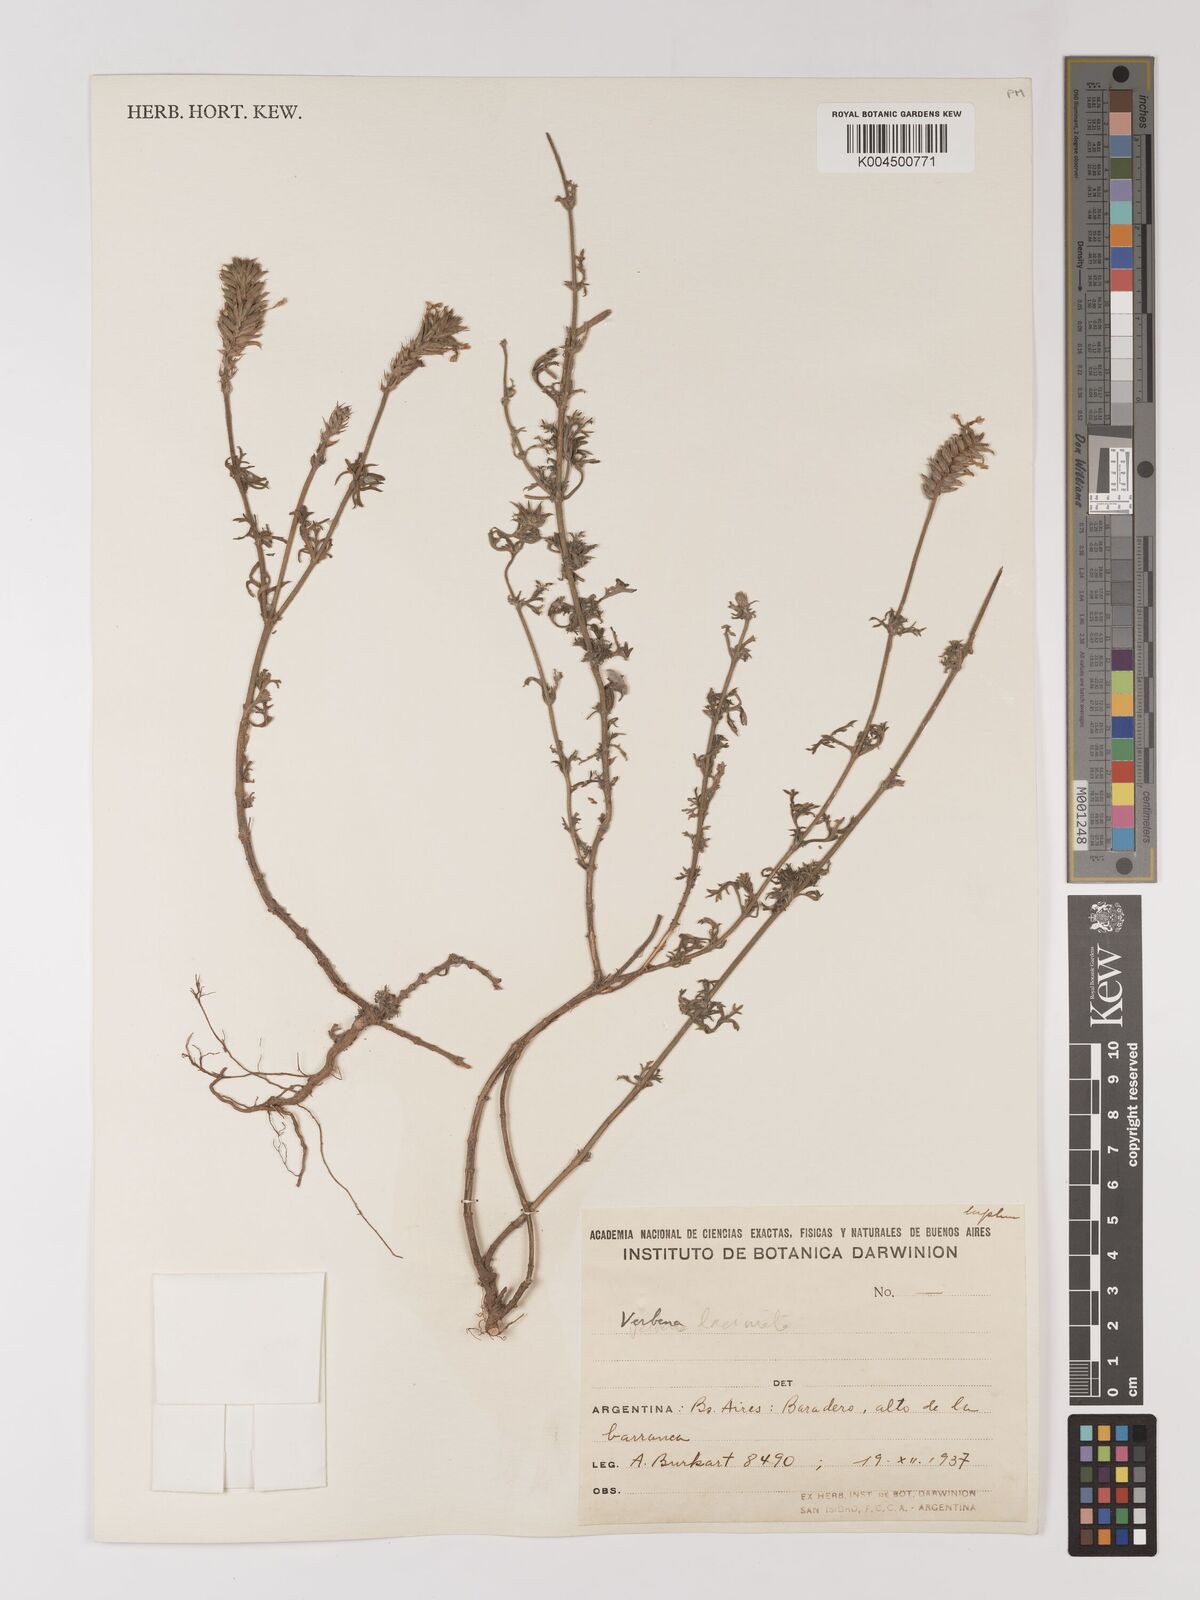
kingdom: Plantae
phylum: Tracheophyta
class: Magnoliopsida
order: Lamiales
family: Verbenaceae
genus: Verbena
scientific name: Verbena laciniata
